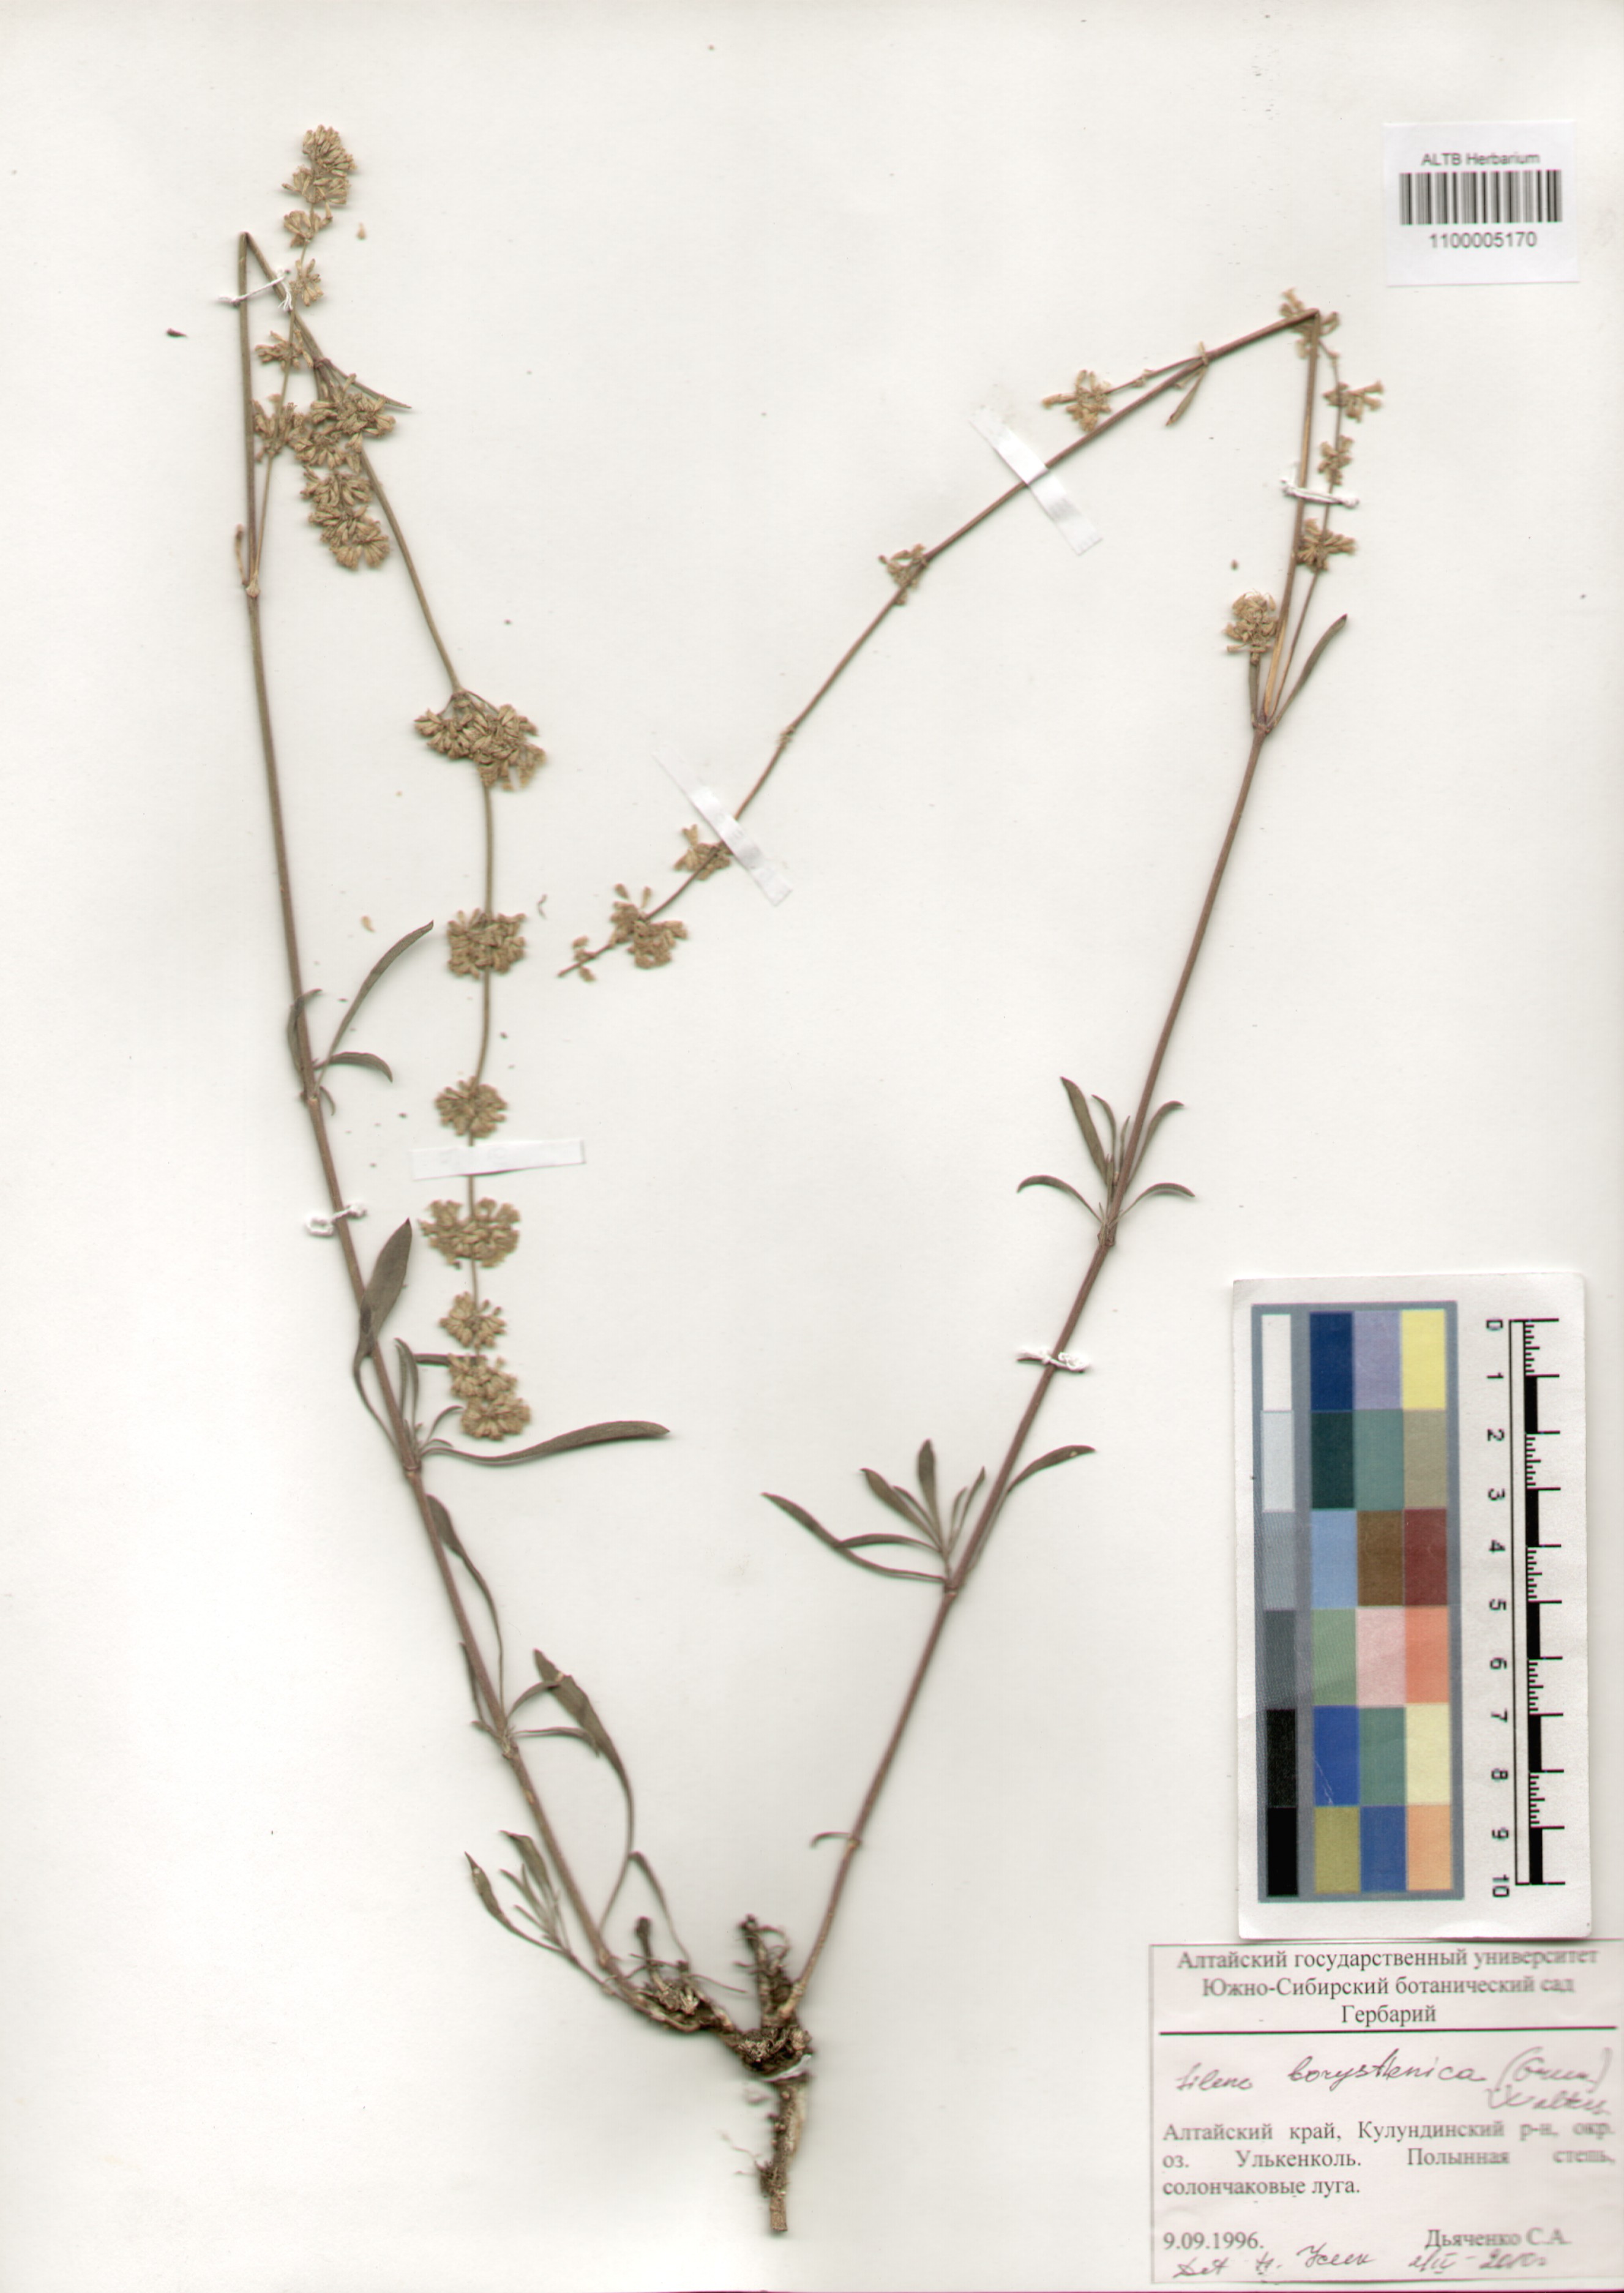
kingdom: Plantae
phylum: Tracheophyta
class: Magnoliopsida
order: Caryophyllales
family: Caryophyllaceae
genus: Silene
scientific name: Silene borysthenica
